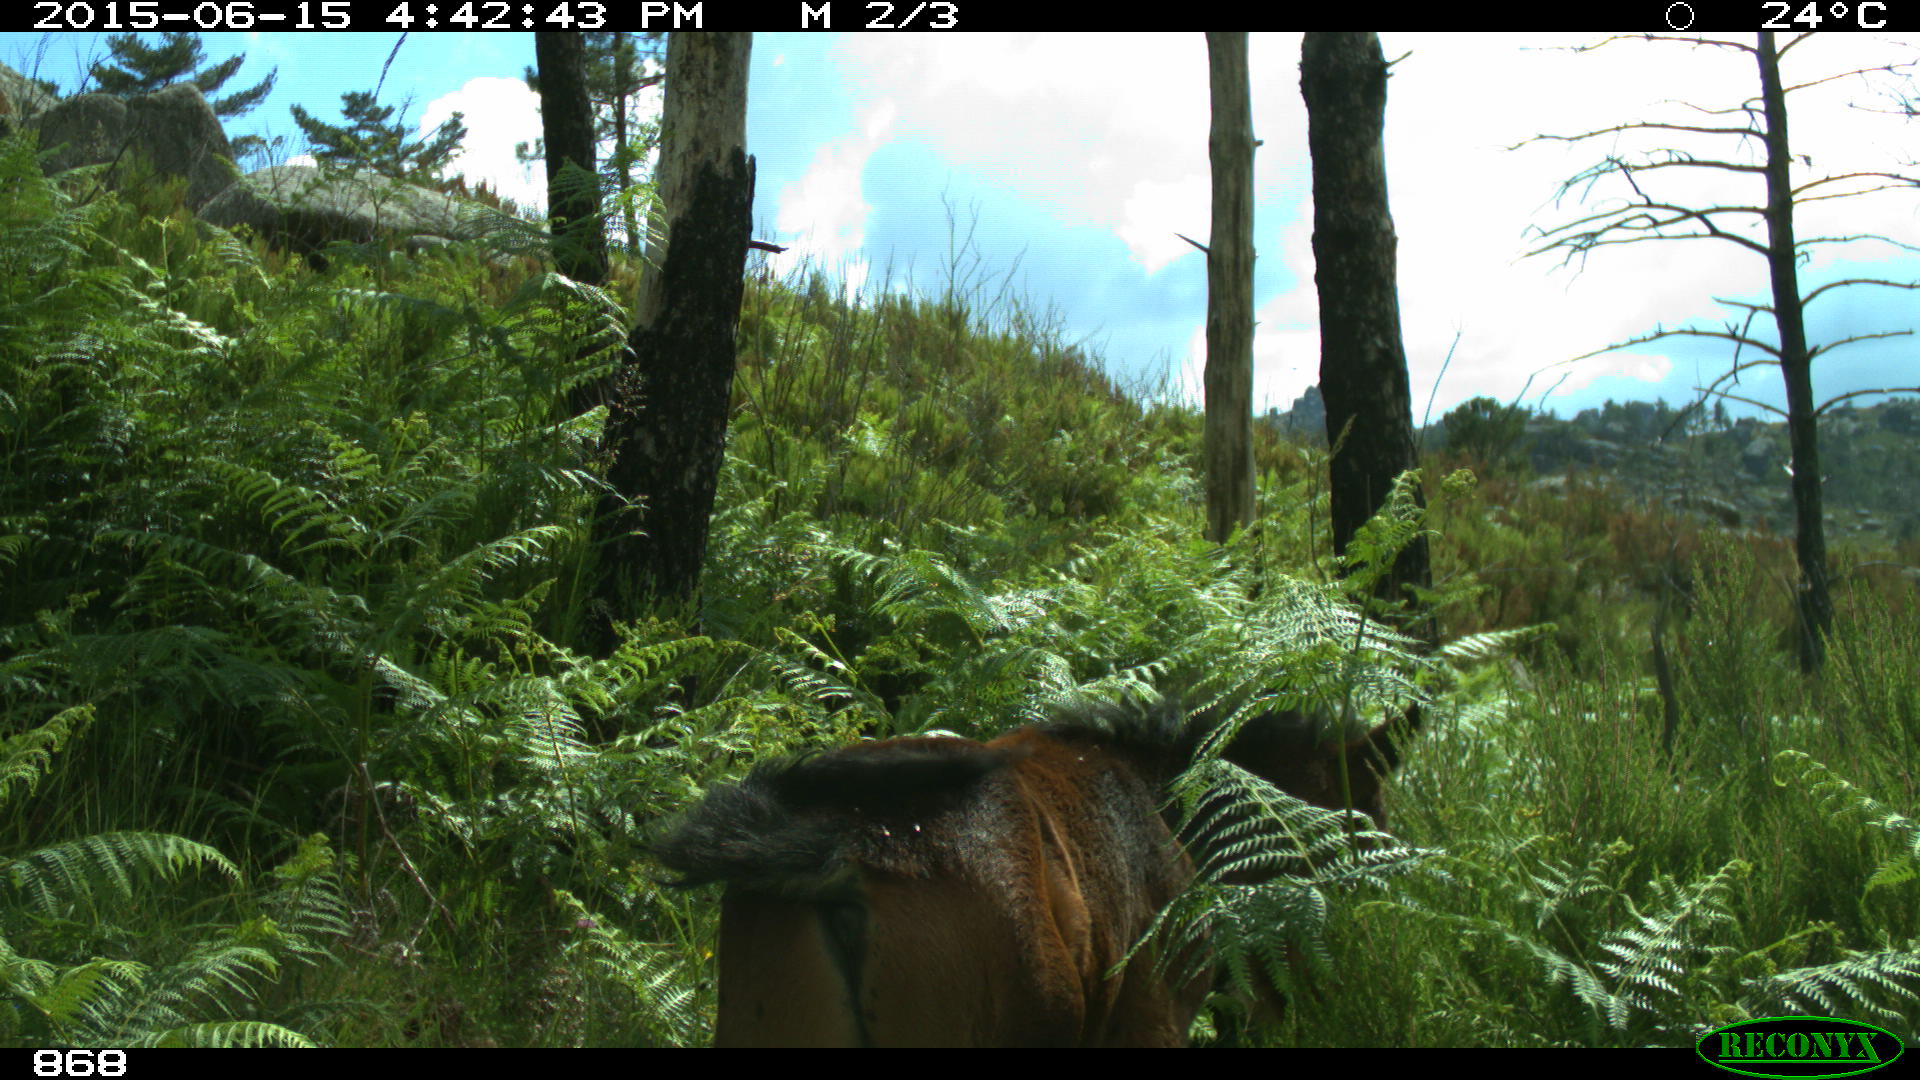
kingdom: Animalia
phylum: Chordata
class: Mammalia
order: Perissodactyla
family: Equidae
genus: Equus
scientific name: Equus caballus
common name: Horse
